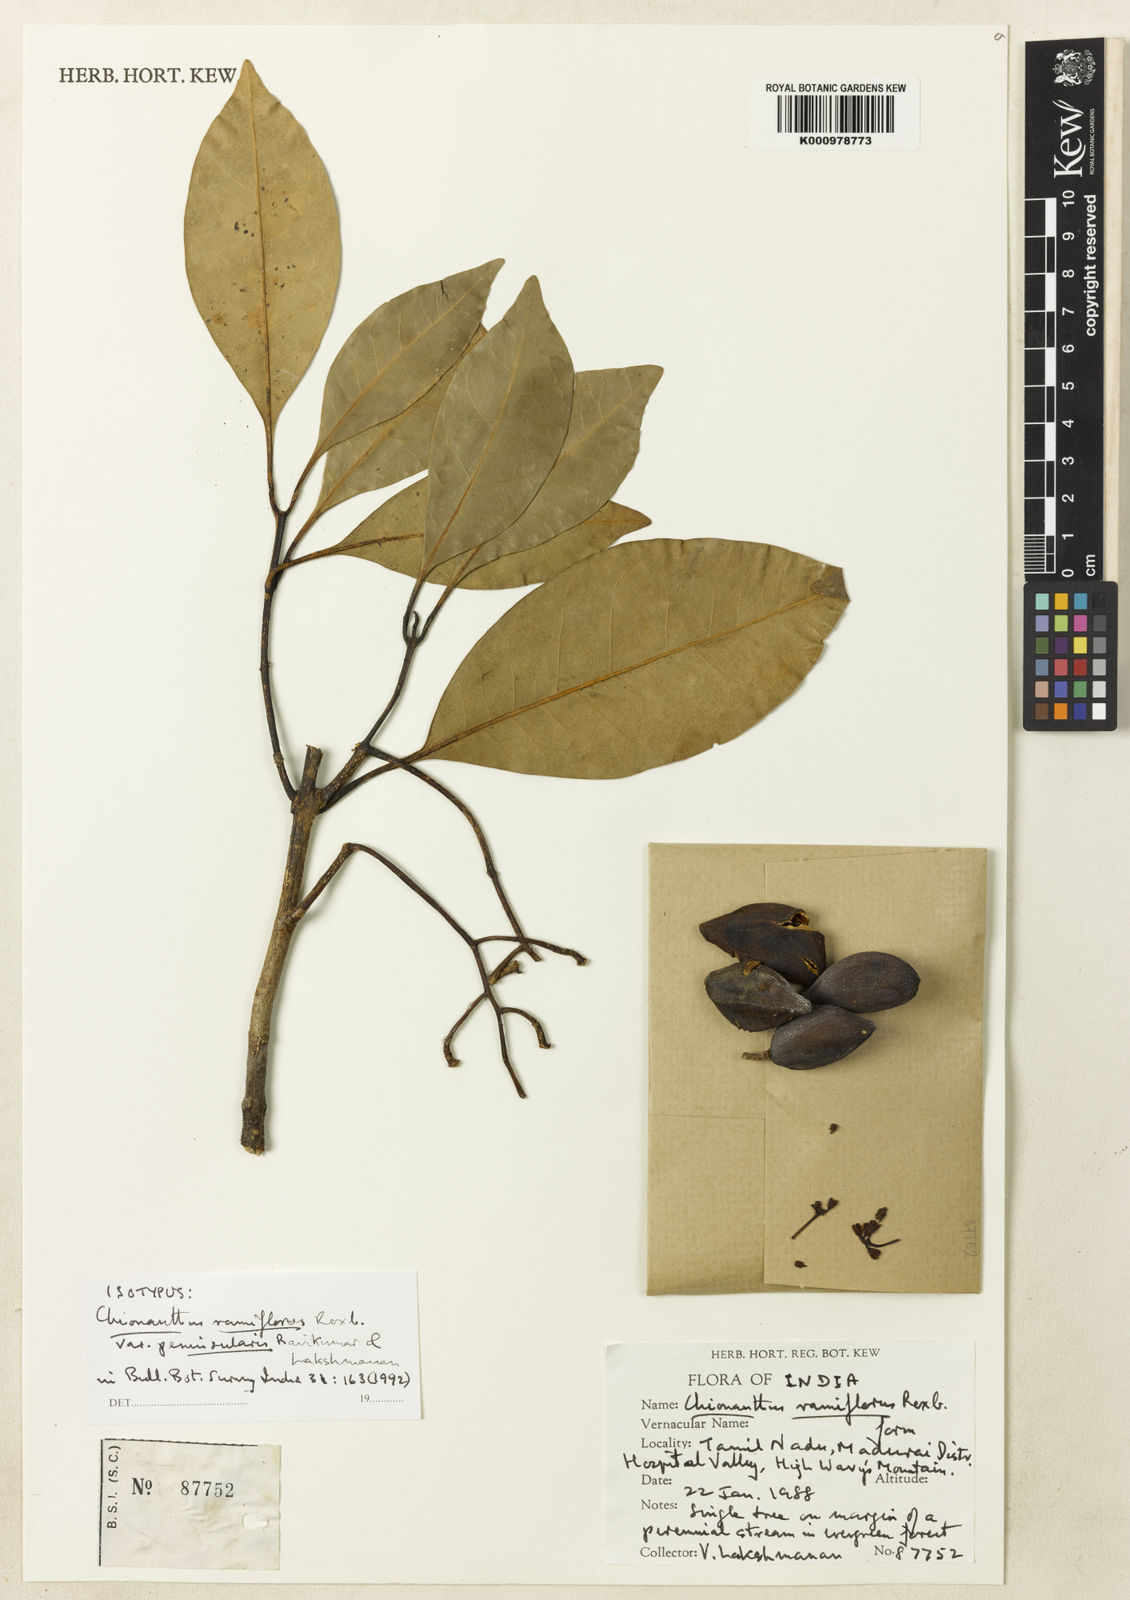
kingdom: Plantae
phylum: Tracheophyta
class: Magnoliopsida
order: Lamiales
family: Oleaceae
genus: Chionanthus
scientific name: Chionanthus zeylanicus
